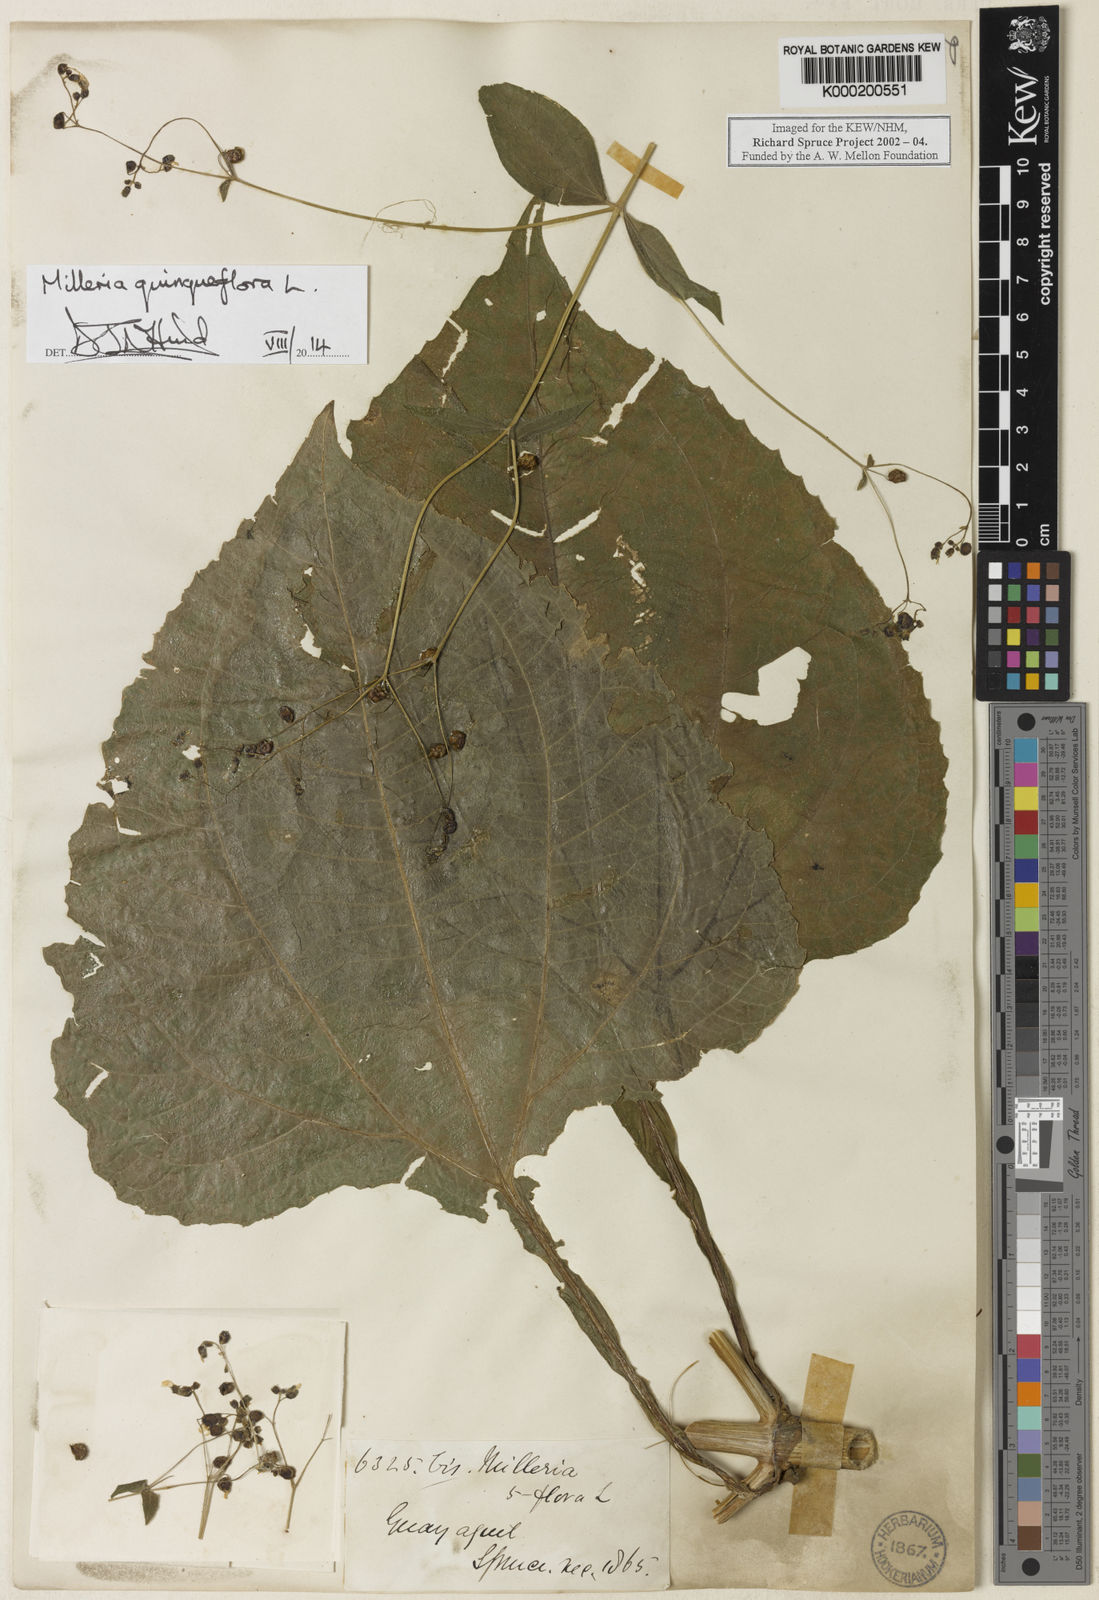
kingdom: Plantae
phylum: Tracheophyta
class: Magnoliopsida
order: Asterales
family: Asteraceae
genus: Milleria
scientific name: Milleria quinqueflora
